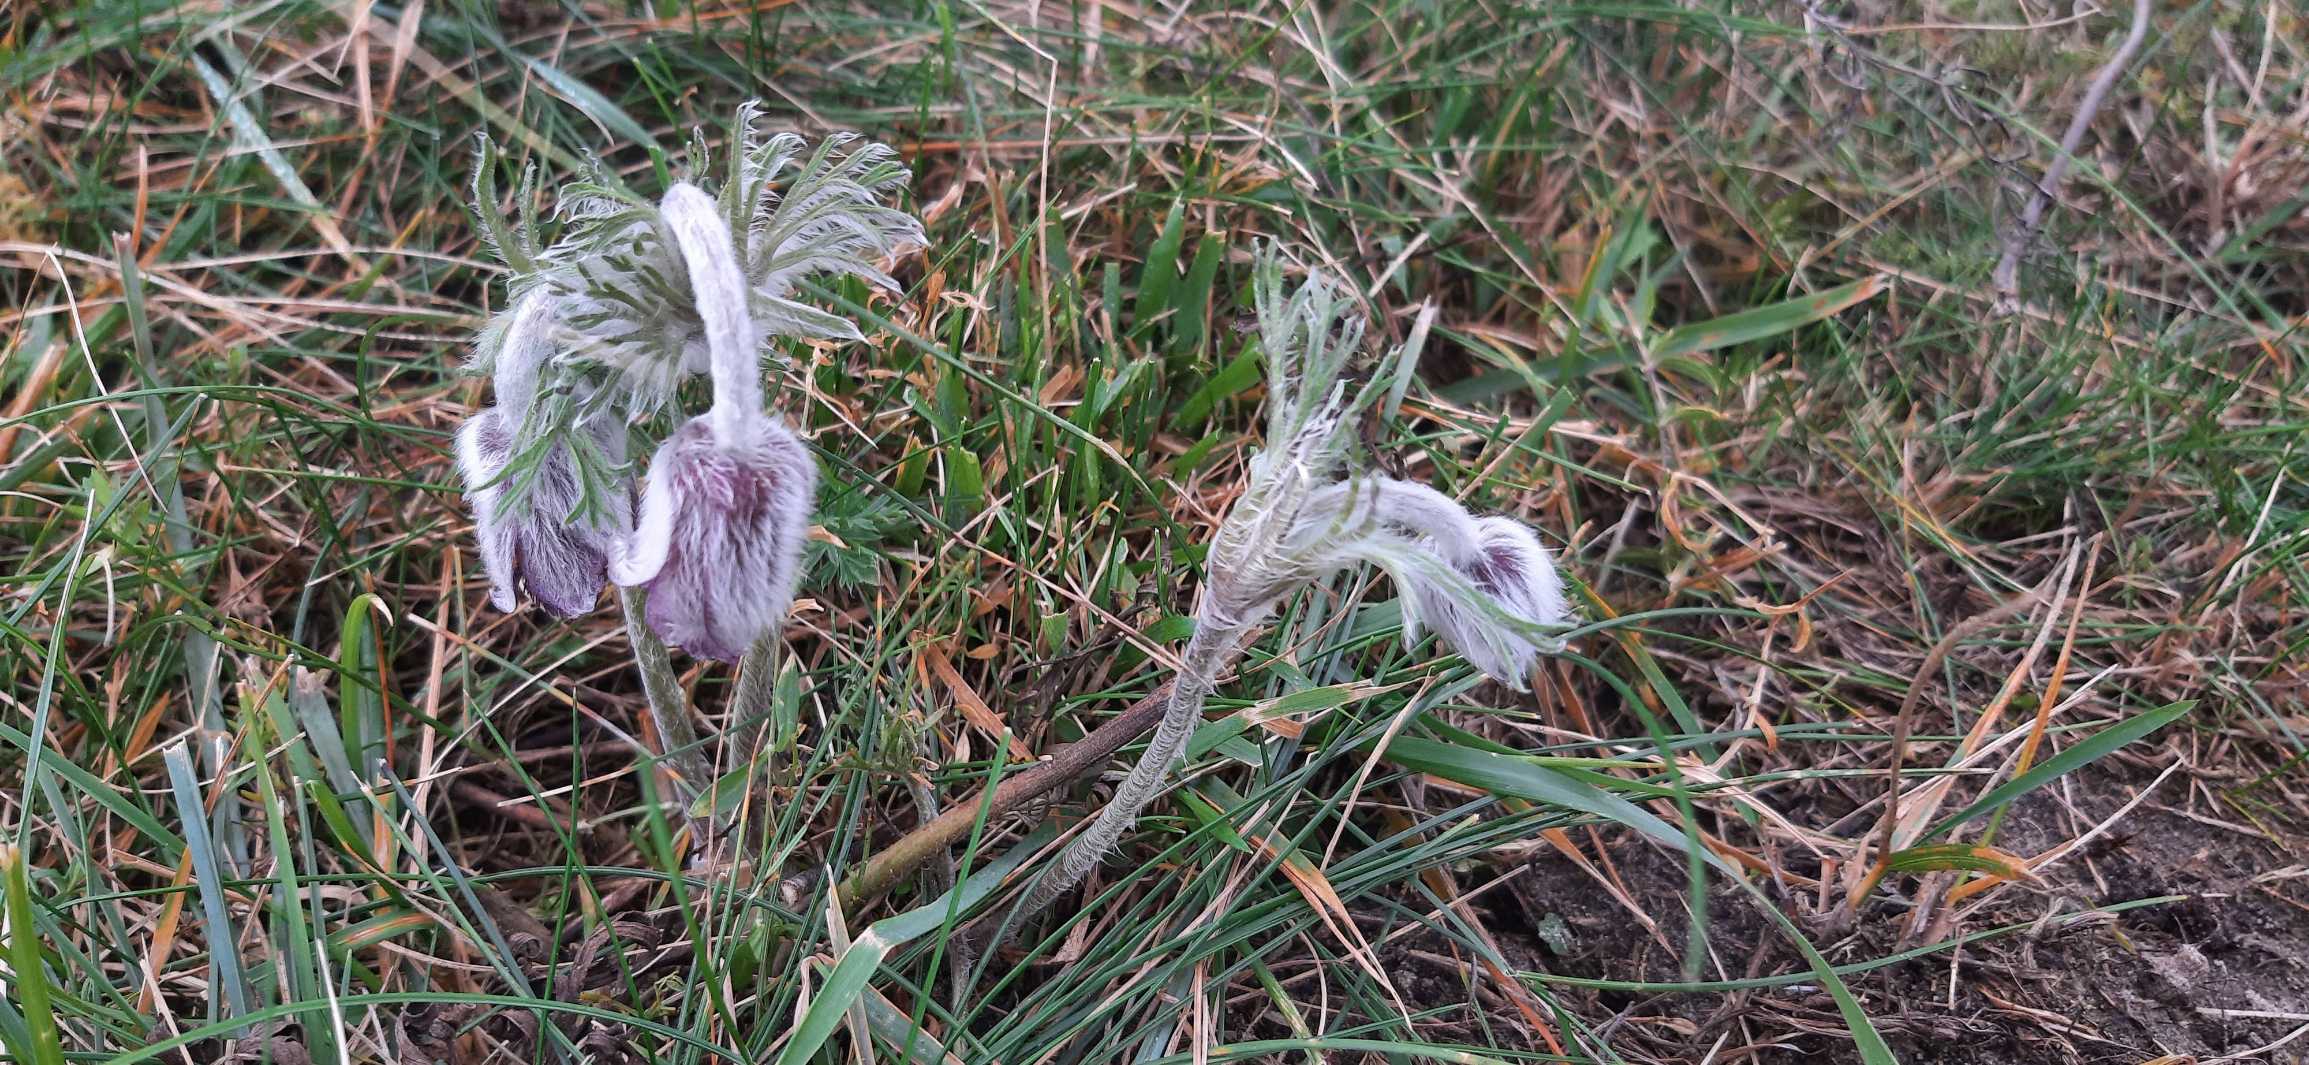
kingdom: Plantae
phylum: Tracheophyta
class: Magnoliopsida
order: Ranunculales
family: Ranunculaceae
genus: Pulsatilla
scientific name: Pulsatilla pratensis
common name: Nikkende kobjælde
